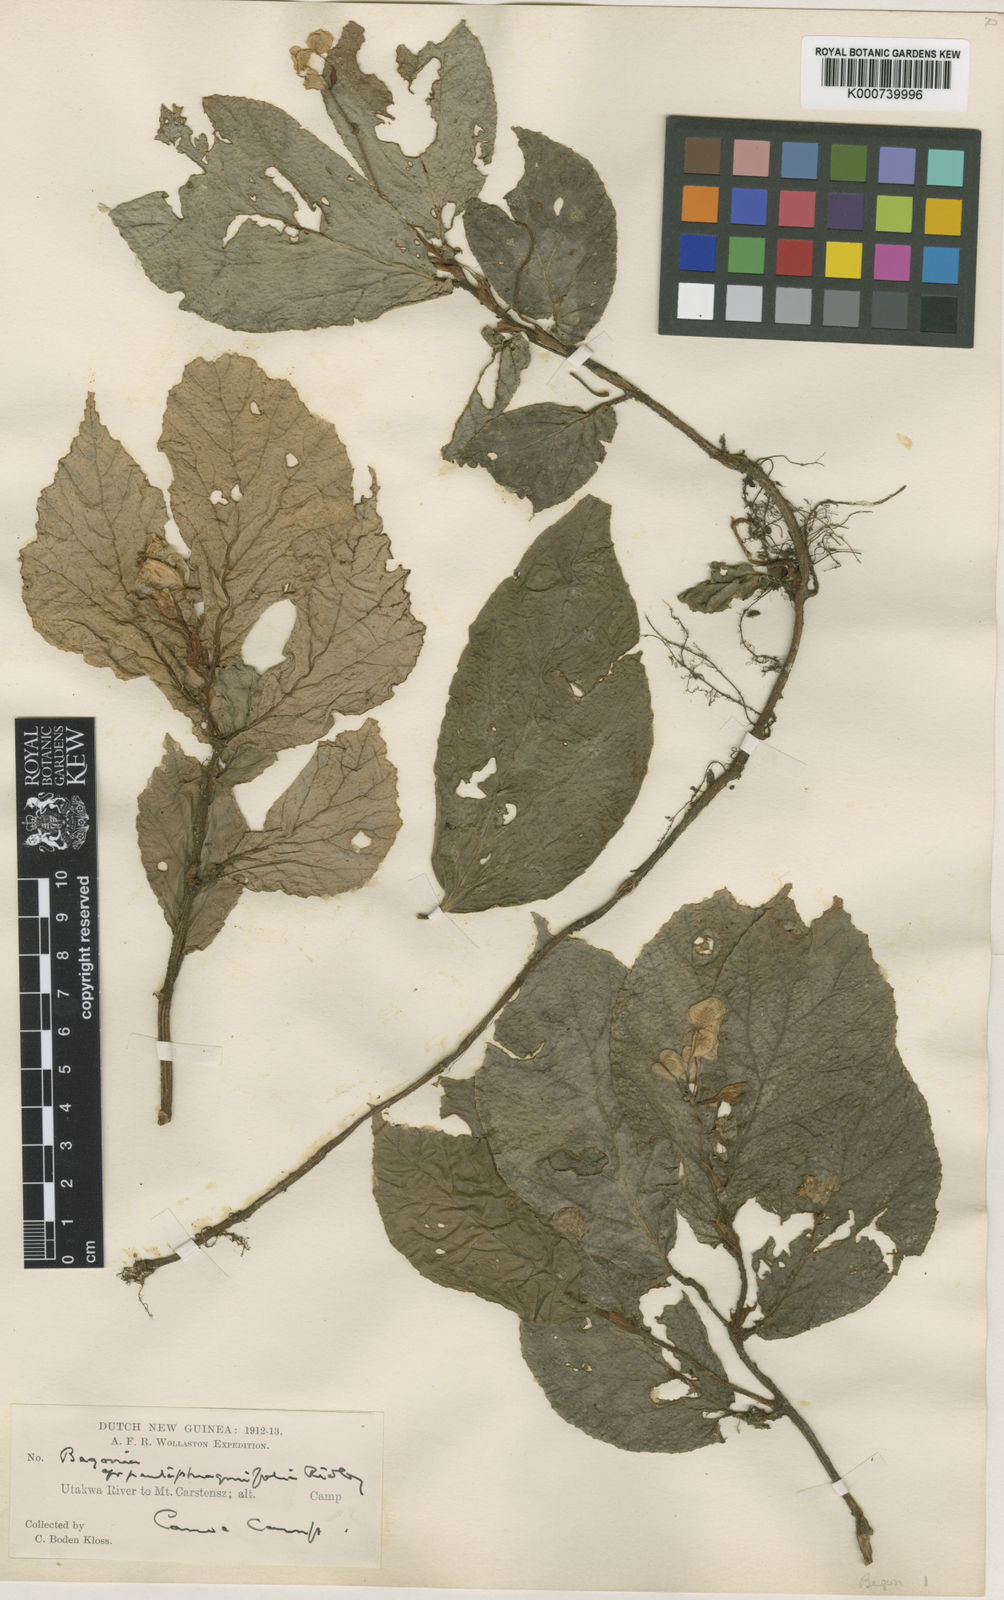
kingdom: Plantae
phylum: Tracheophyta
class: Magnoliopsida
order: Cucurbitales
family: Begoniaceae
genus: Begonia
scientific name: Begonia pentaphragmifolia
